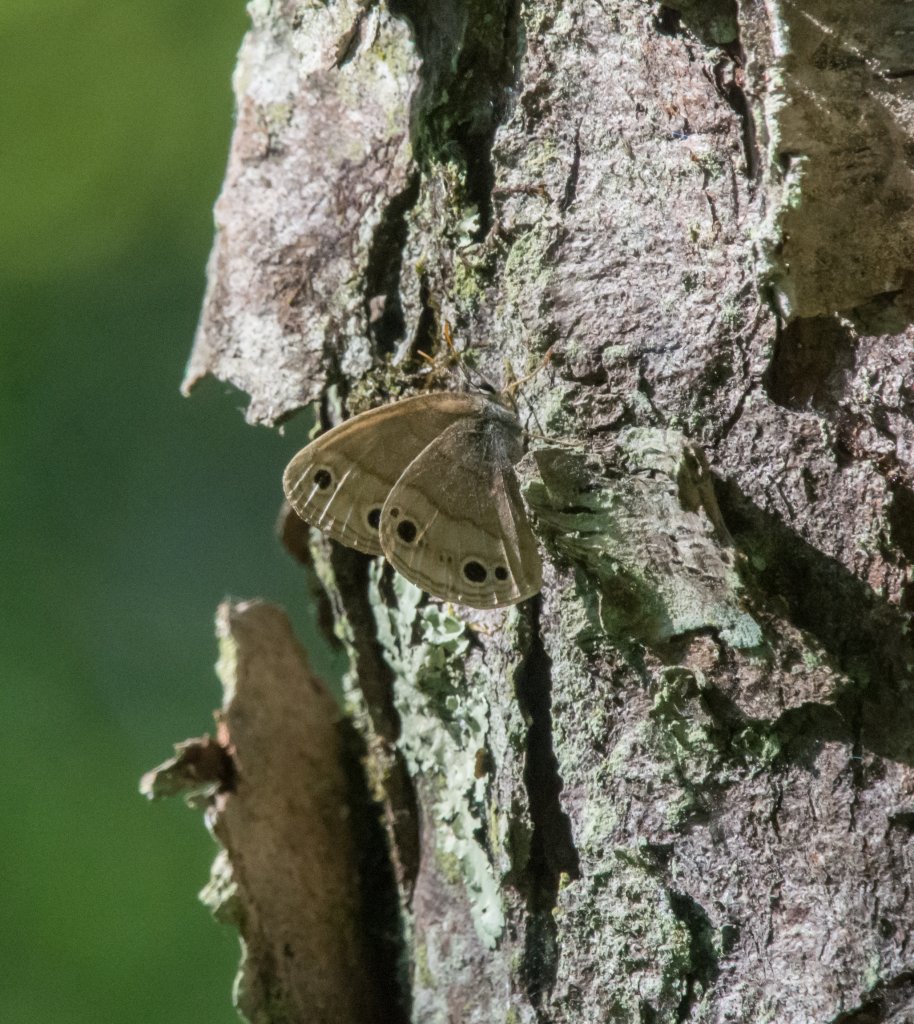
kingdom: Animalia
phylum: Arthropoda
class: Insecta
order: Lepidoptera
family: Nymphalidae
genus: Euptychia
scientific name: Euptychia cymela
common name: Little Wood Satyr
